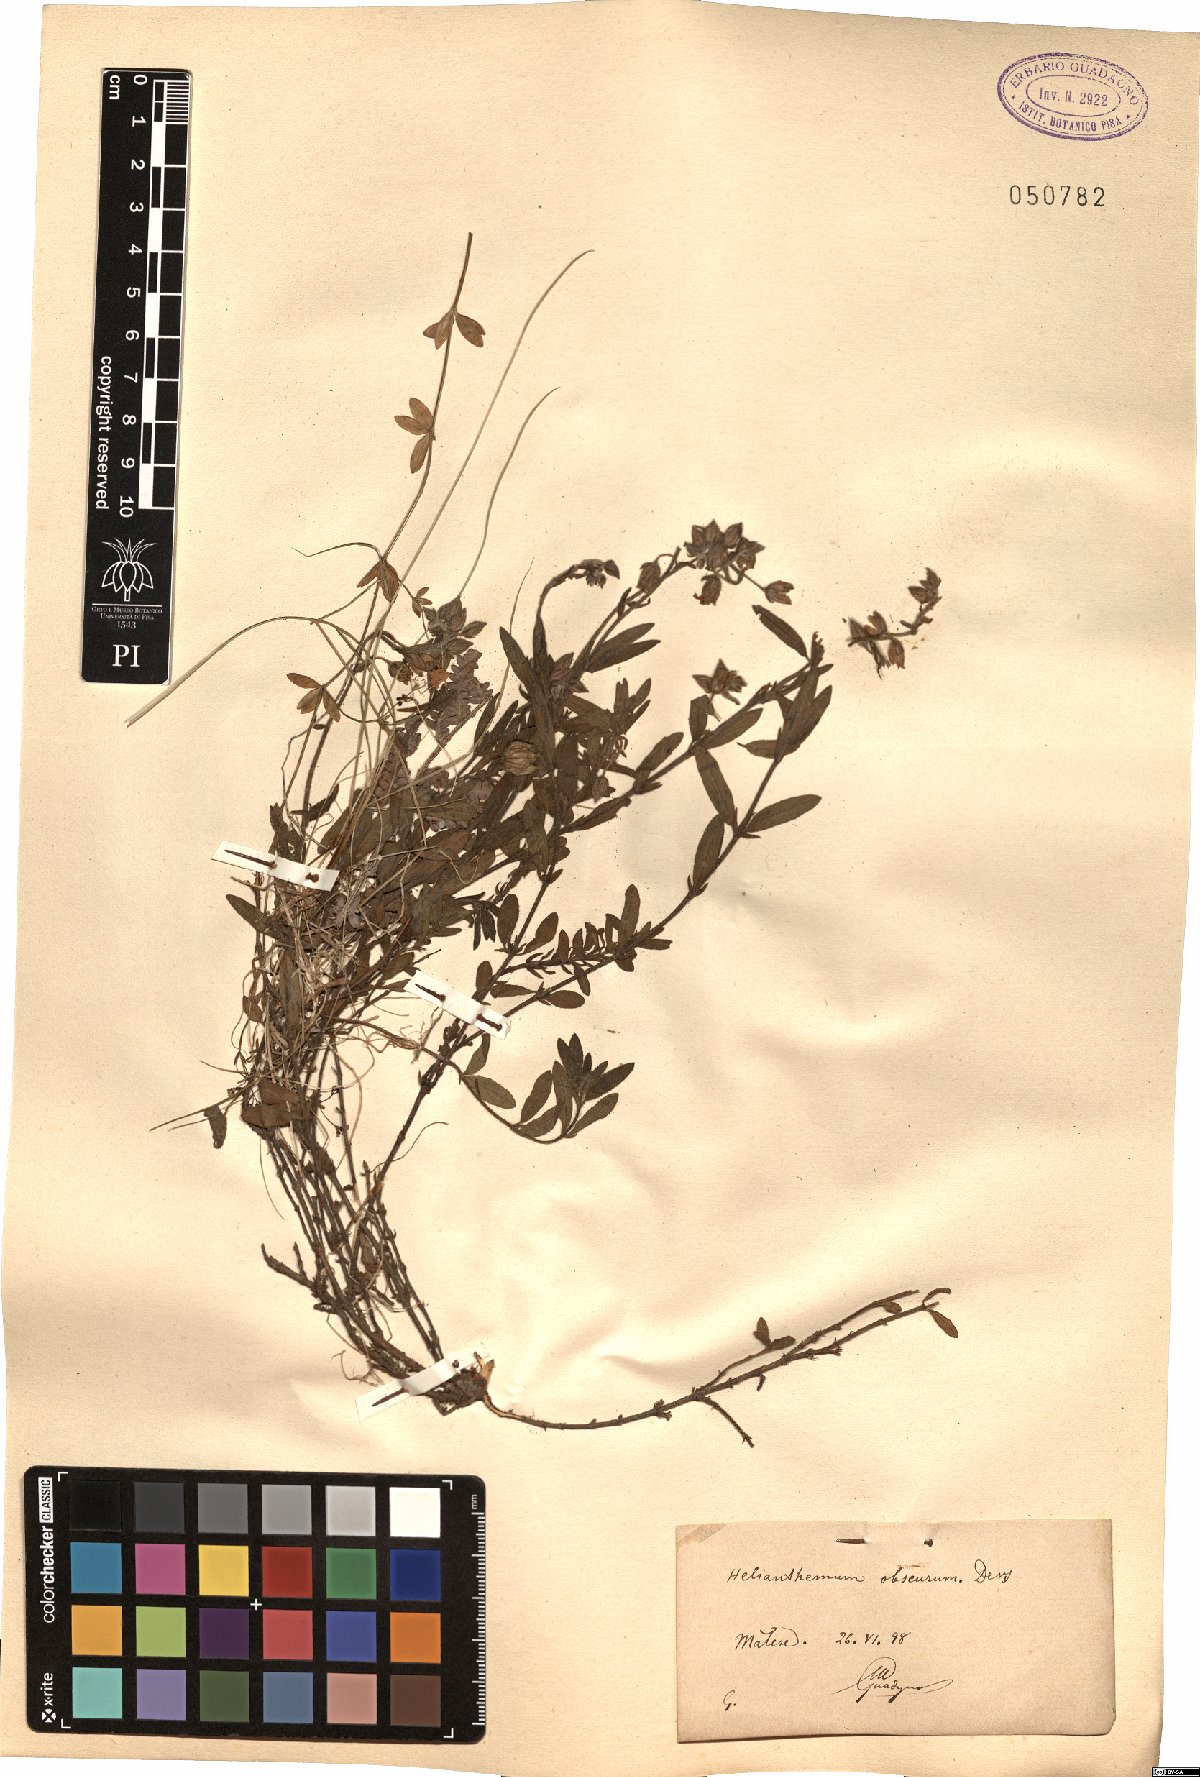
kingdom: Plantae
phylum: Tracheophyta
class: Magnoliopsida
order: Malvales
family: Cistaceae
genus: Helianthemum
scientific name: Helianthemum nummularium
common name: Common rock-rose
